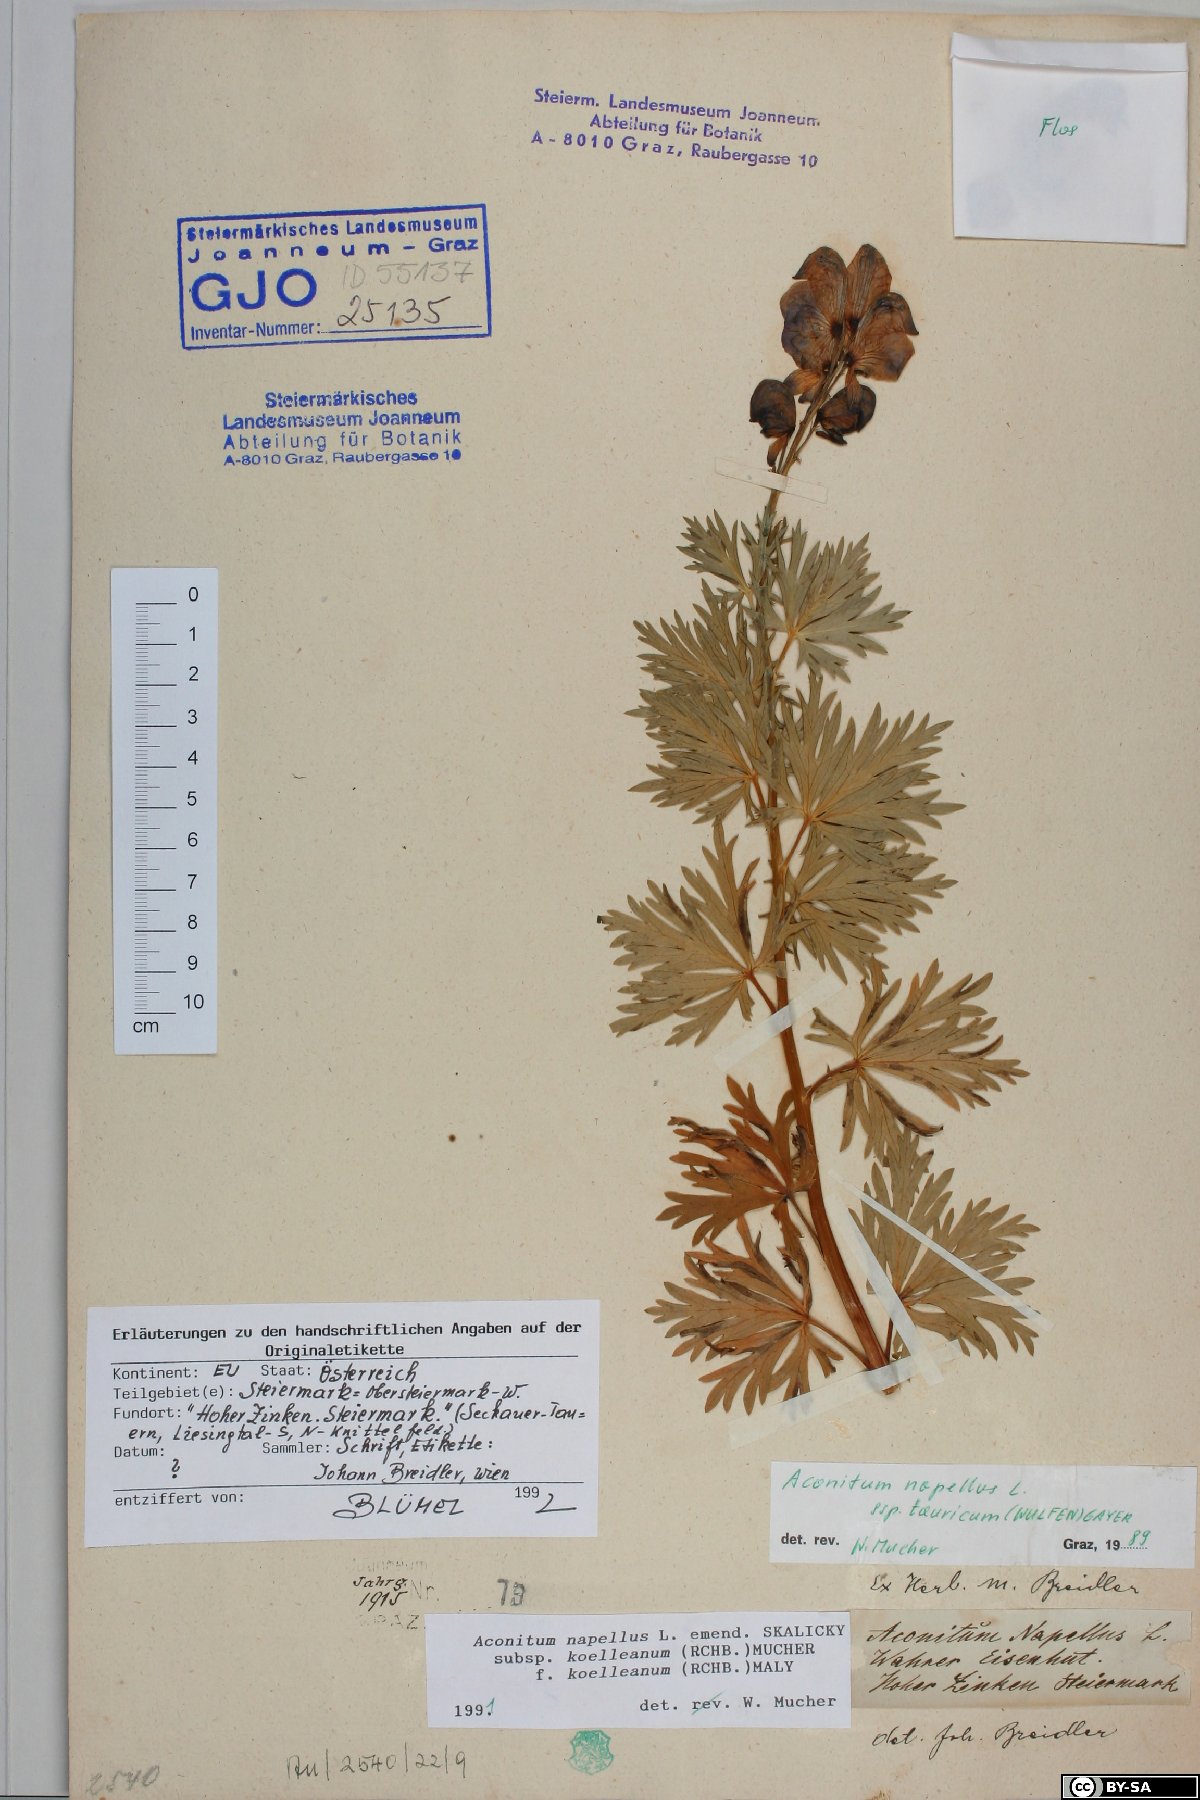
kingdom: Plantae
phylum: Tracheophyta
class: Magnoliopsida
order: Ranunculales
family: Ranunculaceae
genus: Aconitum
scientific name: Aconitum tauricum
